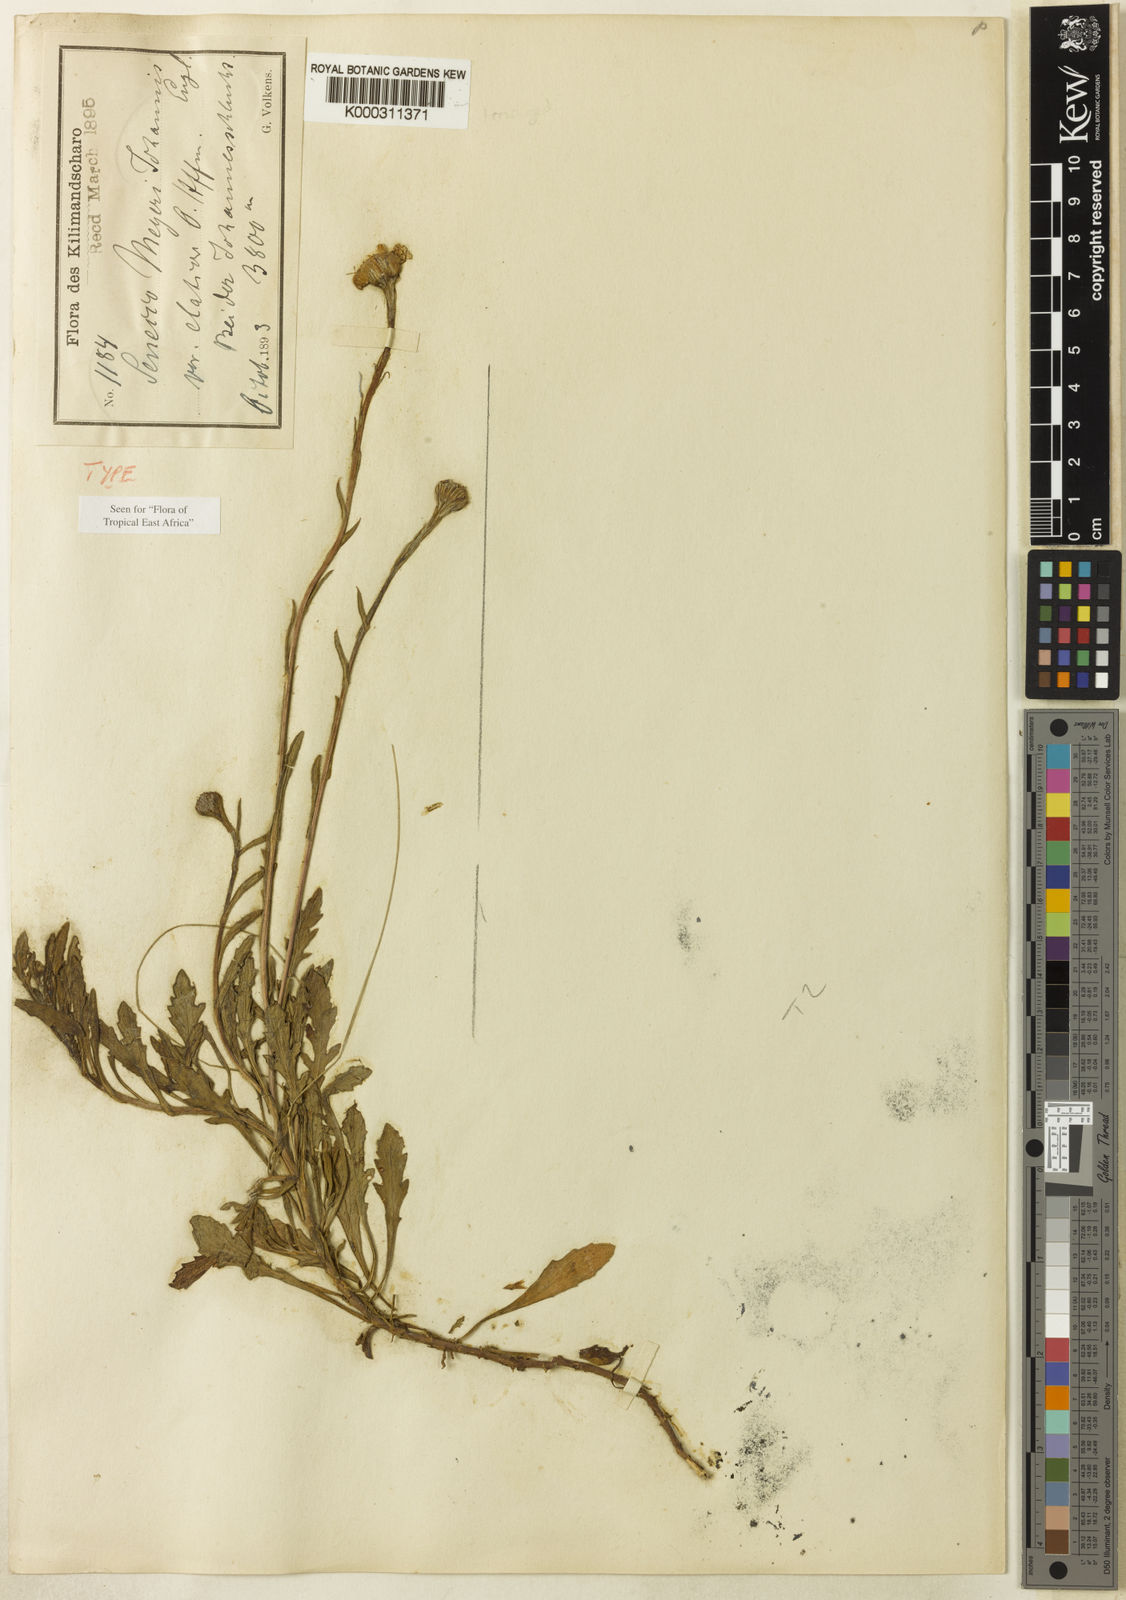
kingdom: Plantae
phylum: Tracheophyta
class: Magnoliopsida
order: Asterales
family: Asteraceae
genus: Senecio
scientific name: Senecio meyeri-johannis
